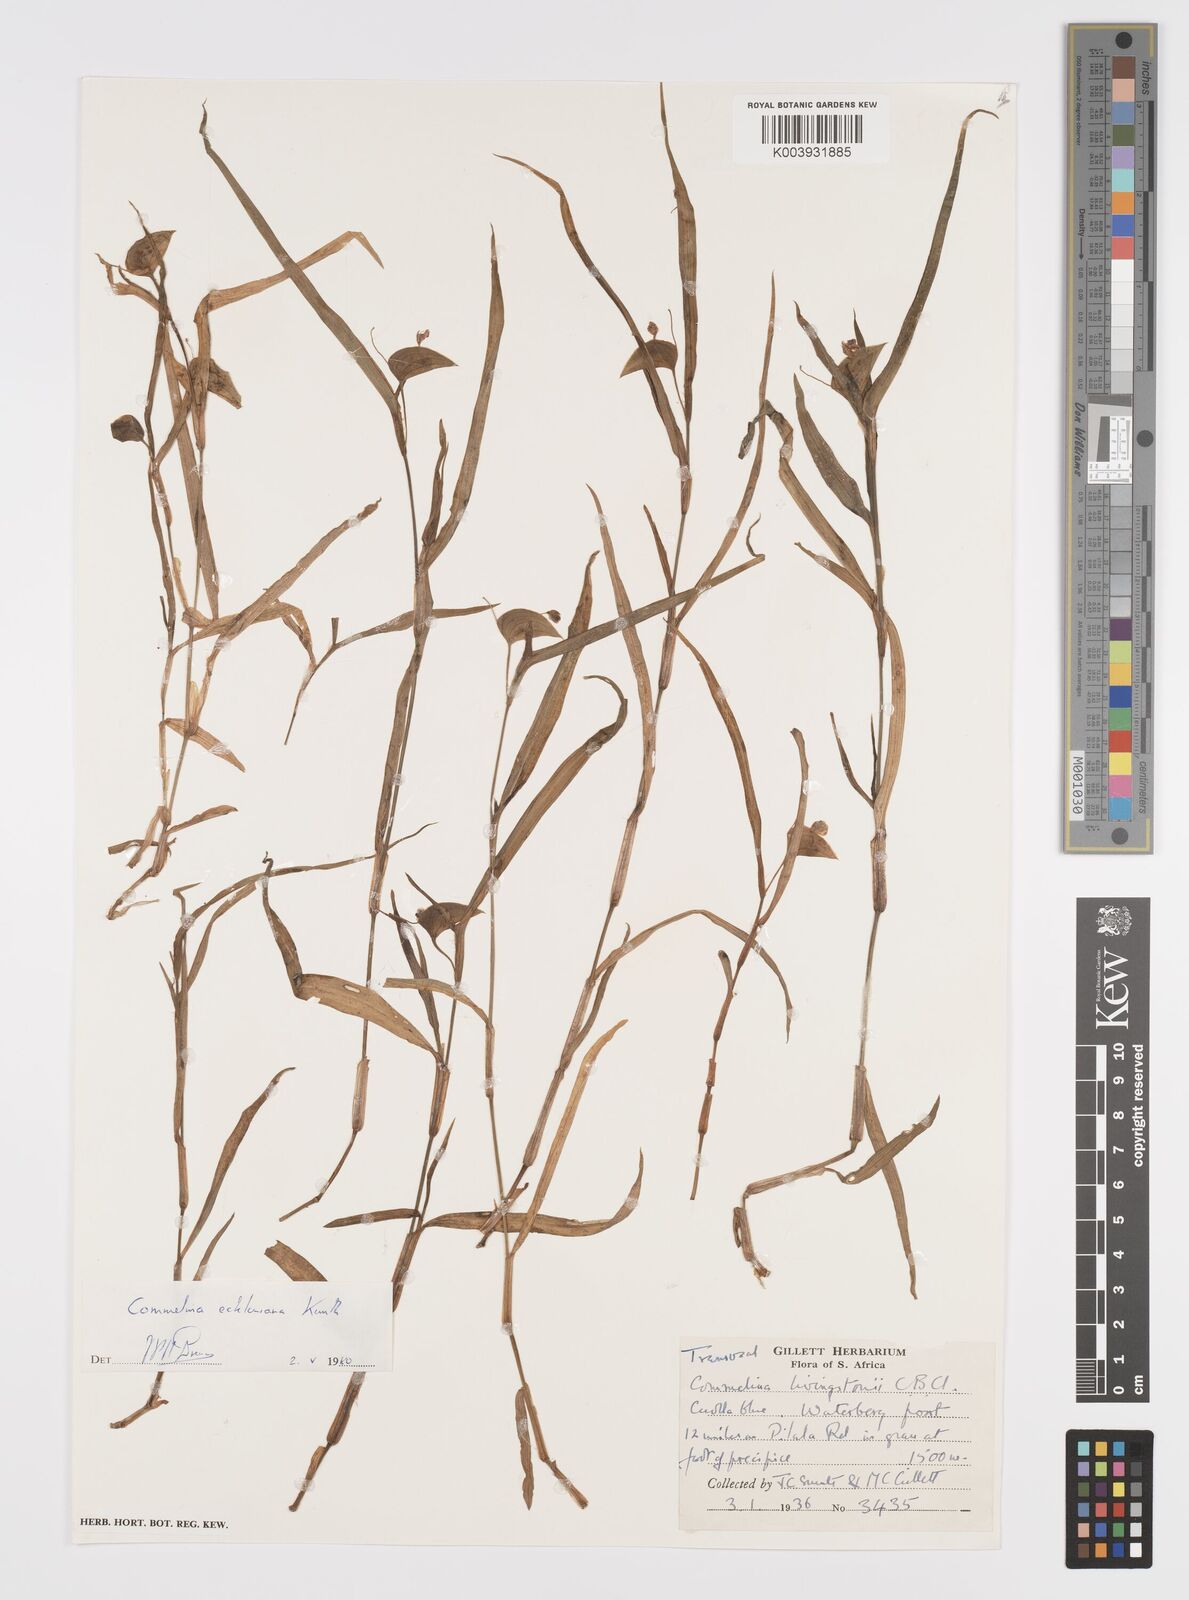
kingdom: Plantae
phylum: Tracheophyta
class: Liliopsida
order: Commelinales
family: Commelinaceae
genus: Commelina
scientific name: Commelina eckloniana
